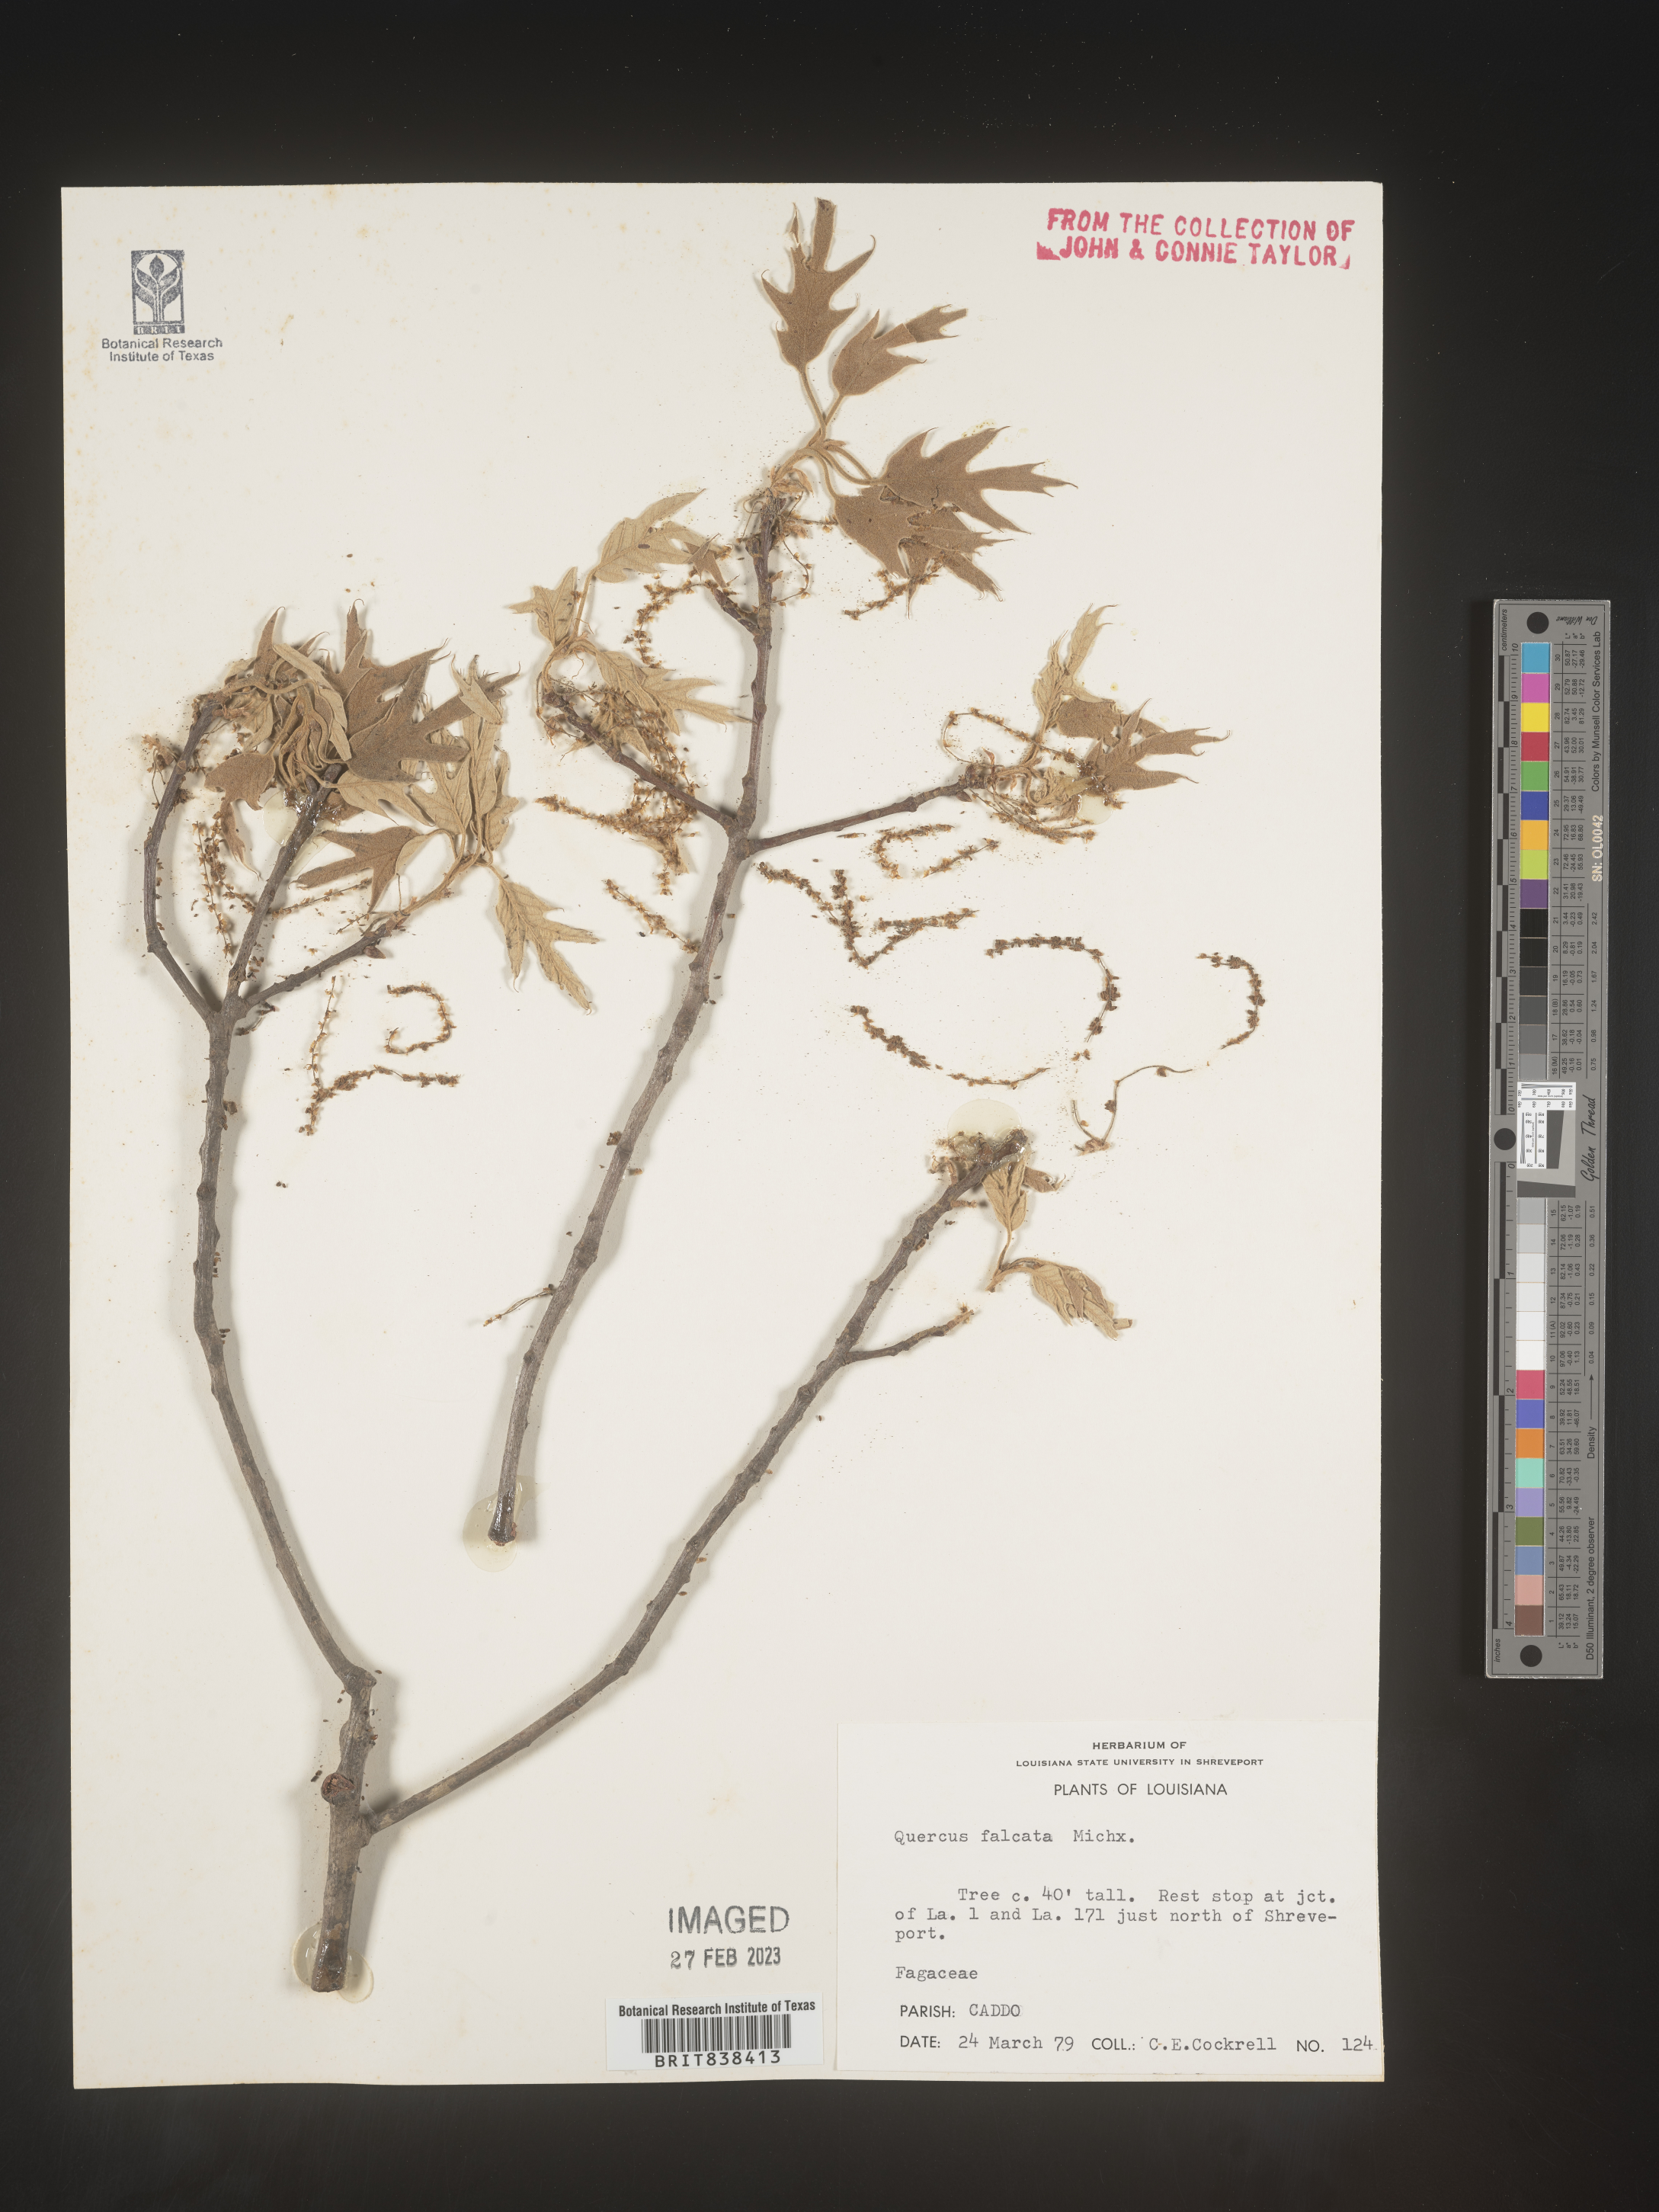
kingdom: Plantae
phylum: Tracheophyta
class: Magnoliopsida
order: Fagales
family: Fagaceae
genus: Quercus
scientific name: Quercus falcata
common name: Southern red oak
